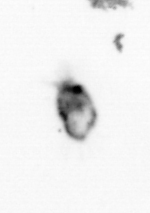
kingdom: Animalia
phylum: Arthropoda
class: Copepoda
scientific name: Copepoda
